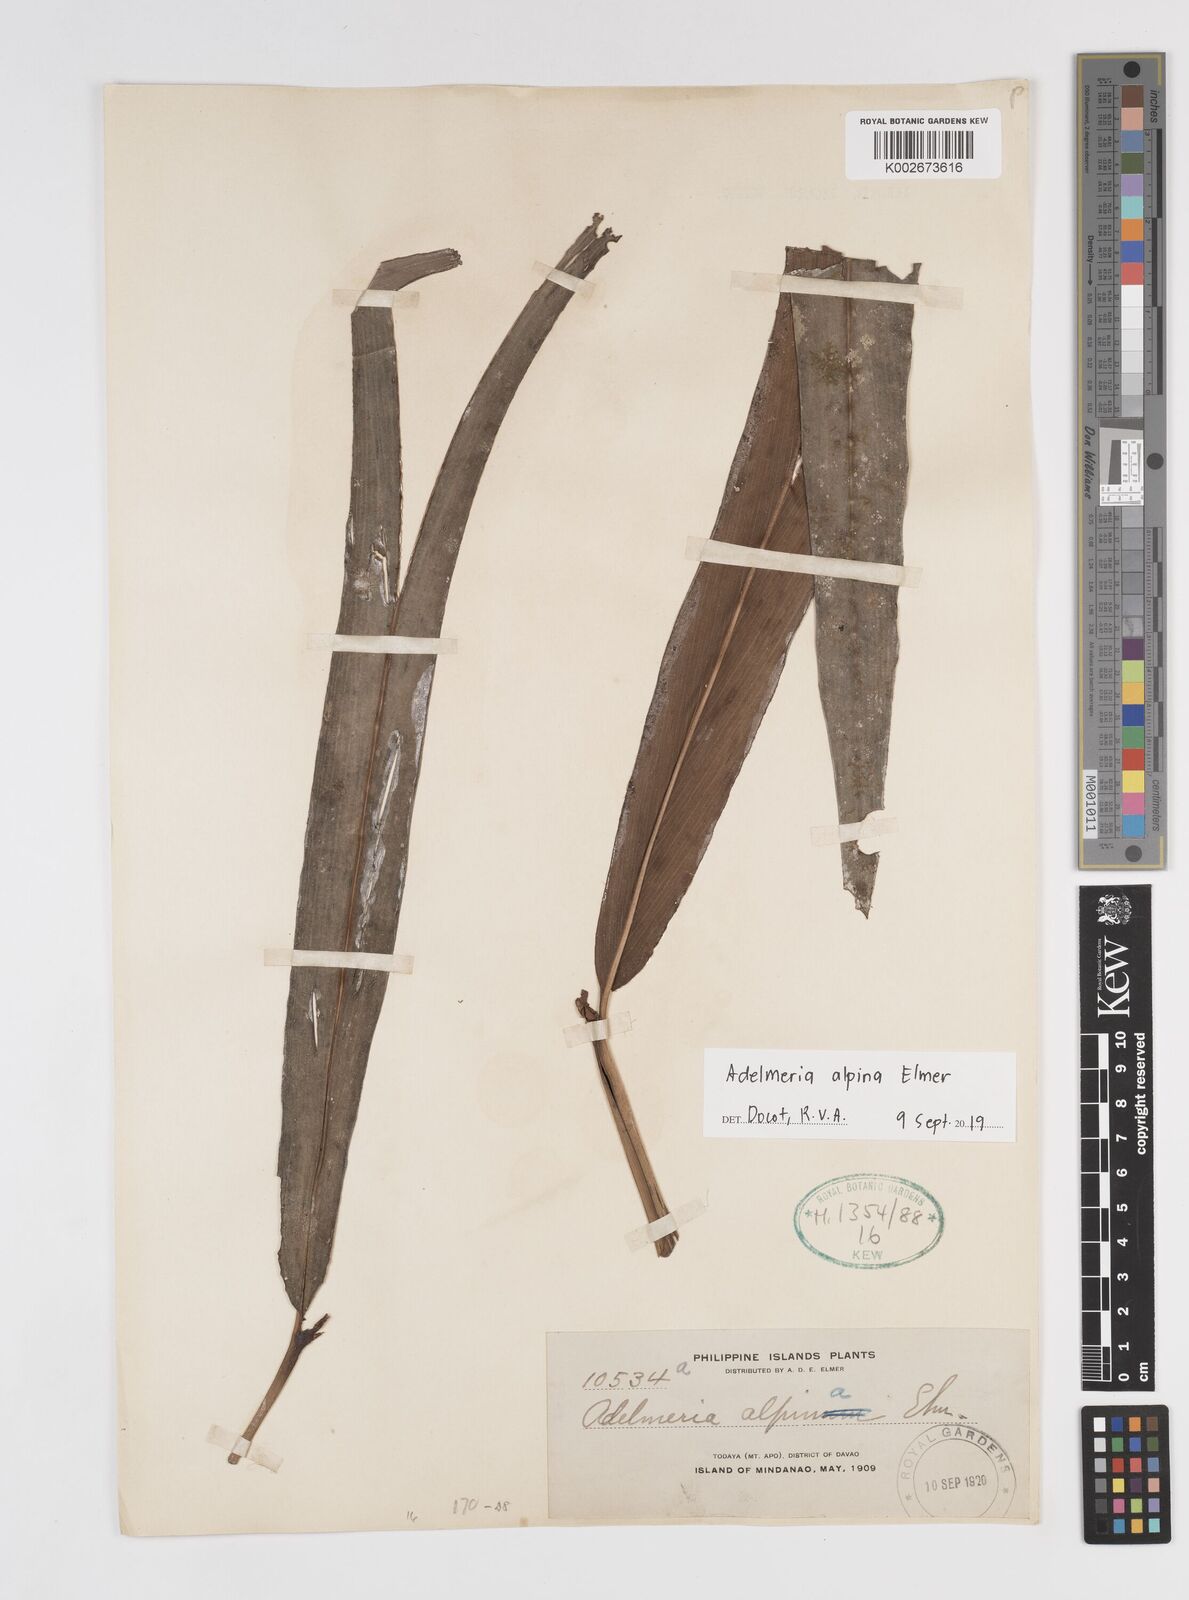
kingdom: Plantae
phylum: Tracheophyta
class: Liliopsida
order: Zingiberales
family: Zingiberaceae
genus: Adelmeria
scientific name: Adelmeria paradoxa
